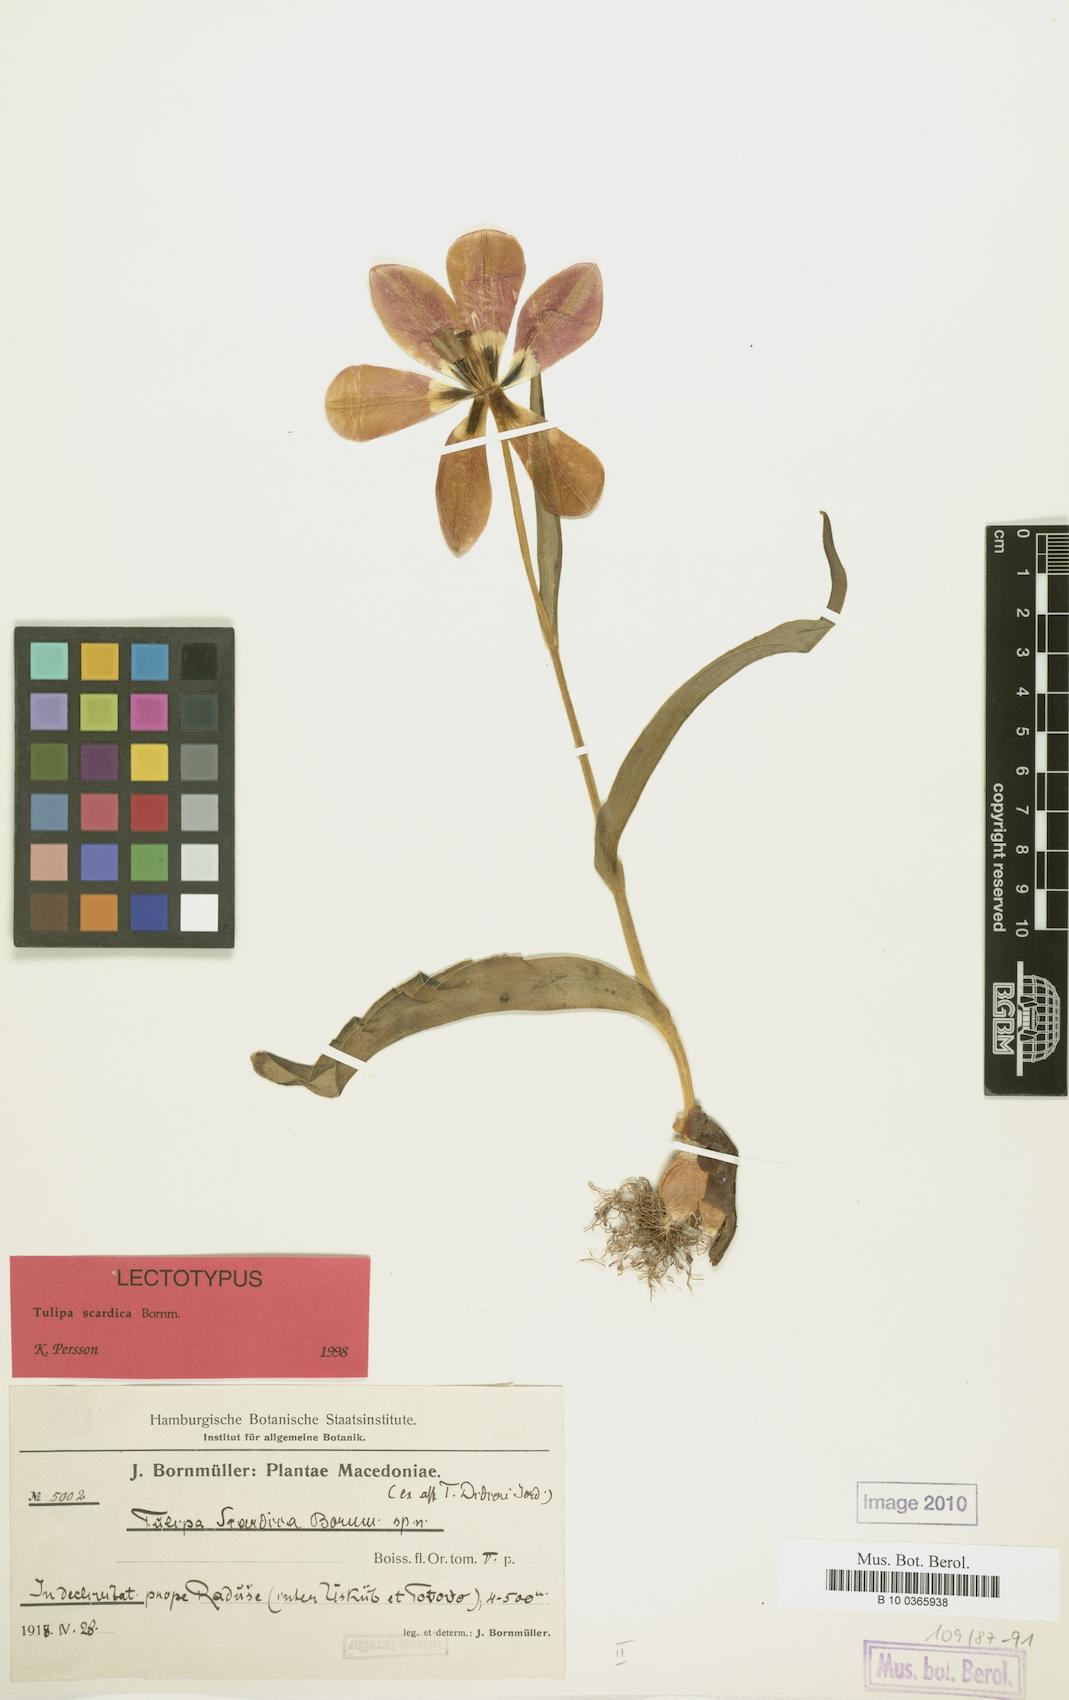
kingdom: Plantae
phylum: Tracheophyta
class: Liliopsida
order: Liliales
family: Liliaceae
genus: Tulipa
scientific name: Tulipa scardica
